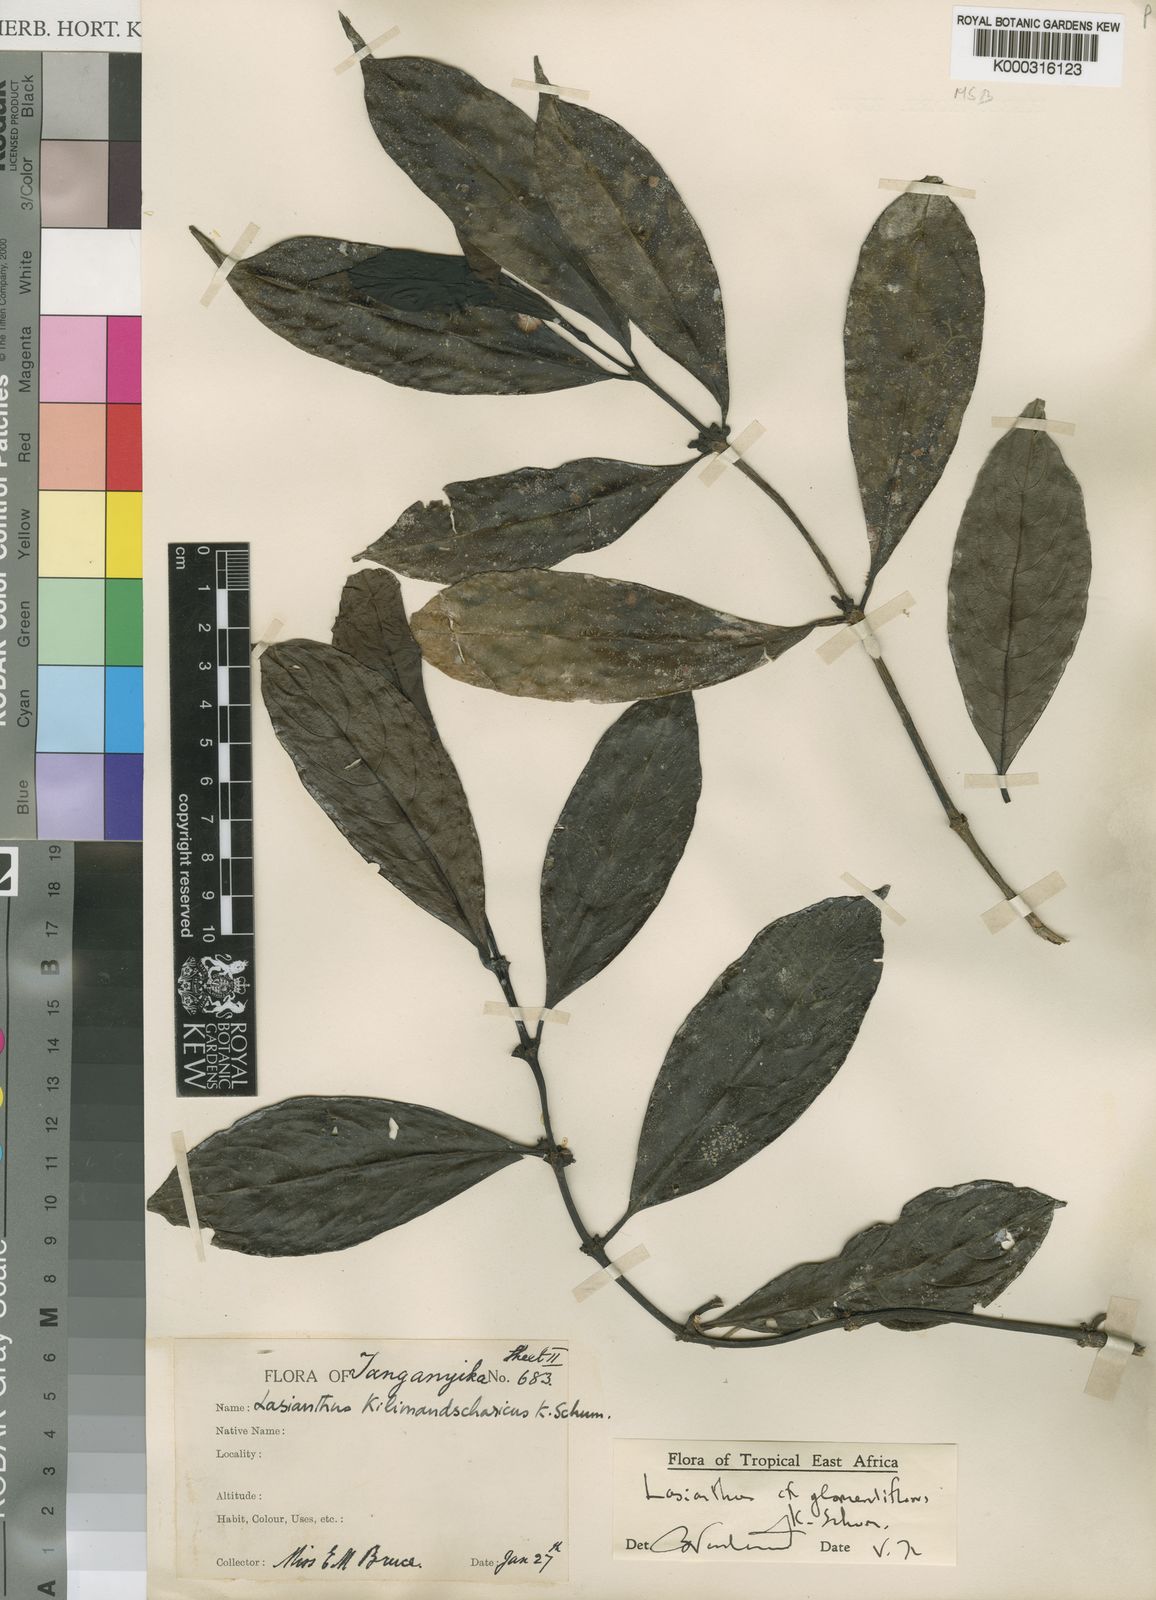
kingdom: Plantae
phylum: Tracheophyta
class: Magnoliopsida
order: Gentianales
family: Rubiaceae
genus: Lasianthus
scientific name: Lasianthus glomeruliflorus
